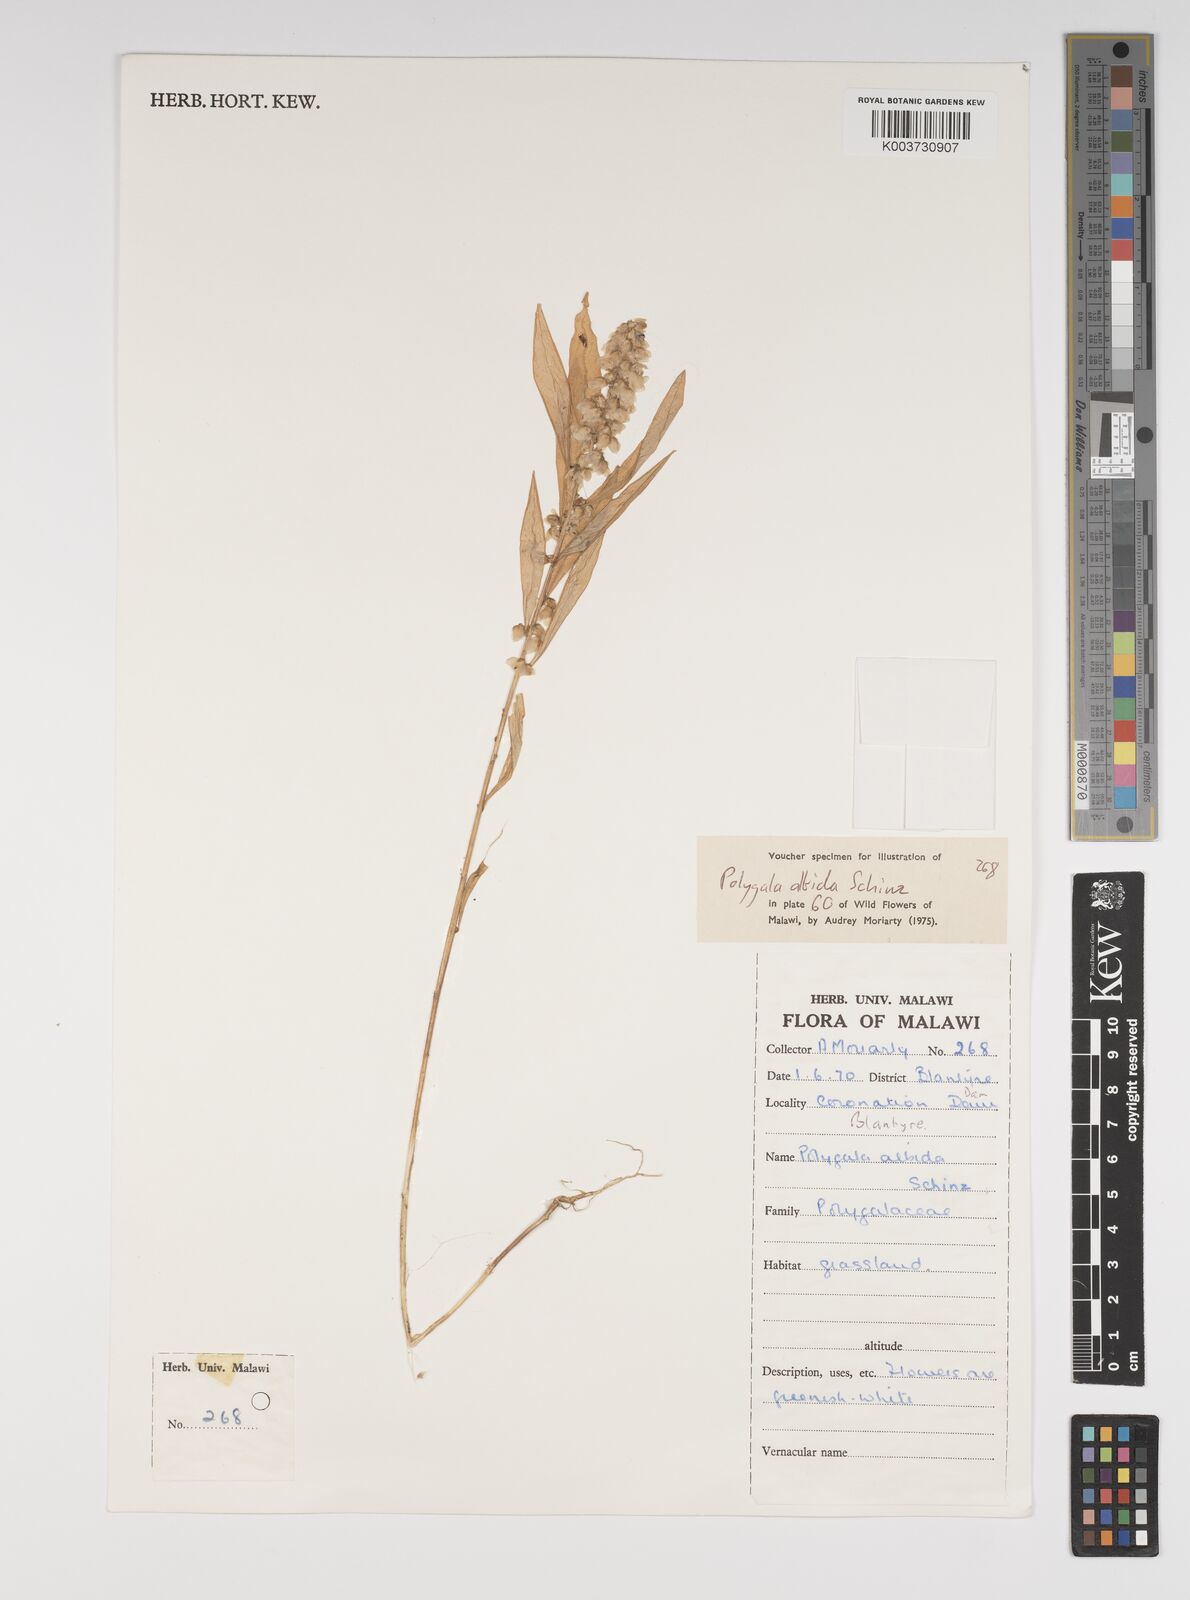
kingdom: Plantae
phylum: Tracheophyta
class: Magnoliopsida
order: Fabales
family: Polygalaceae
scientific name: Polygalaceae
